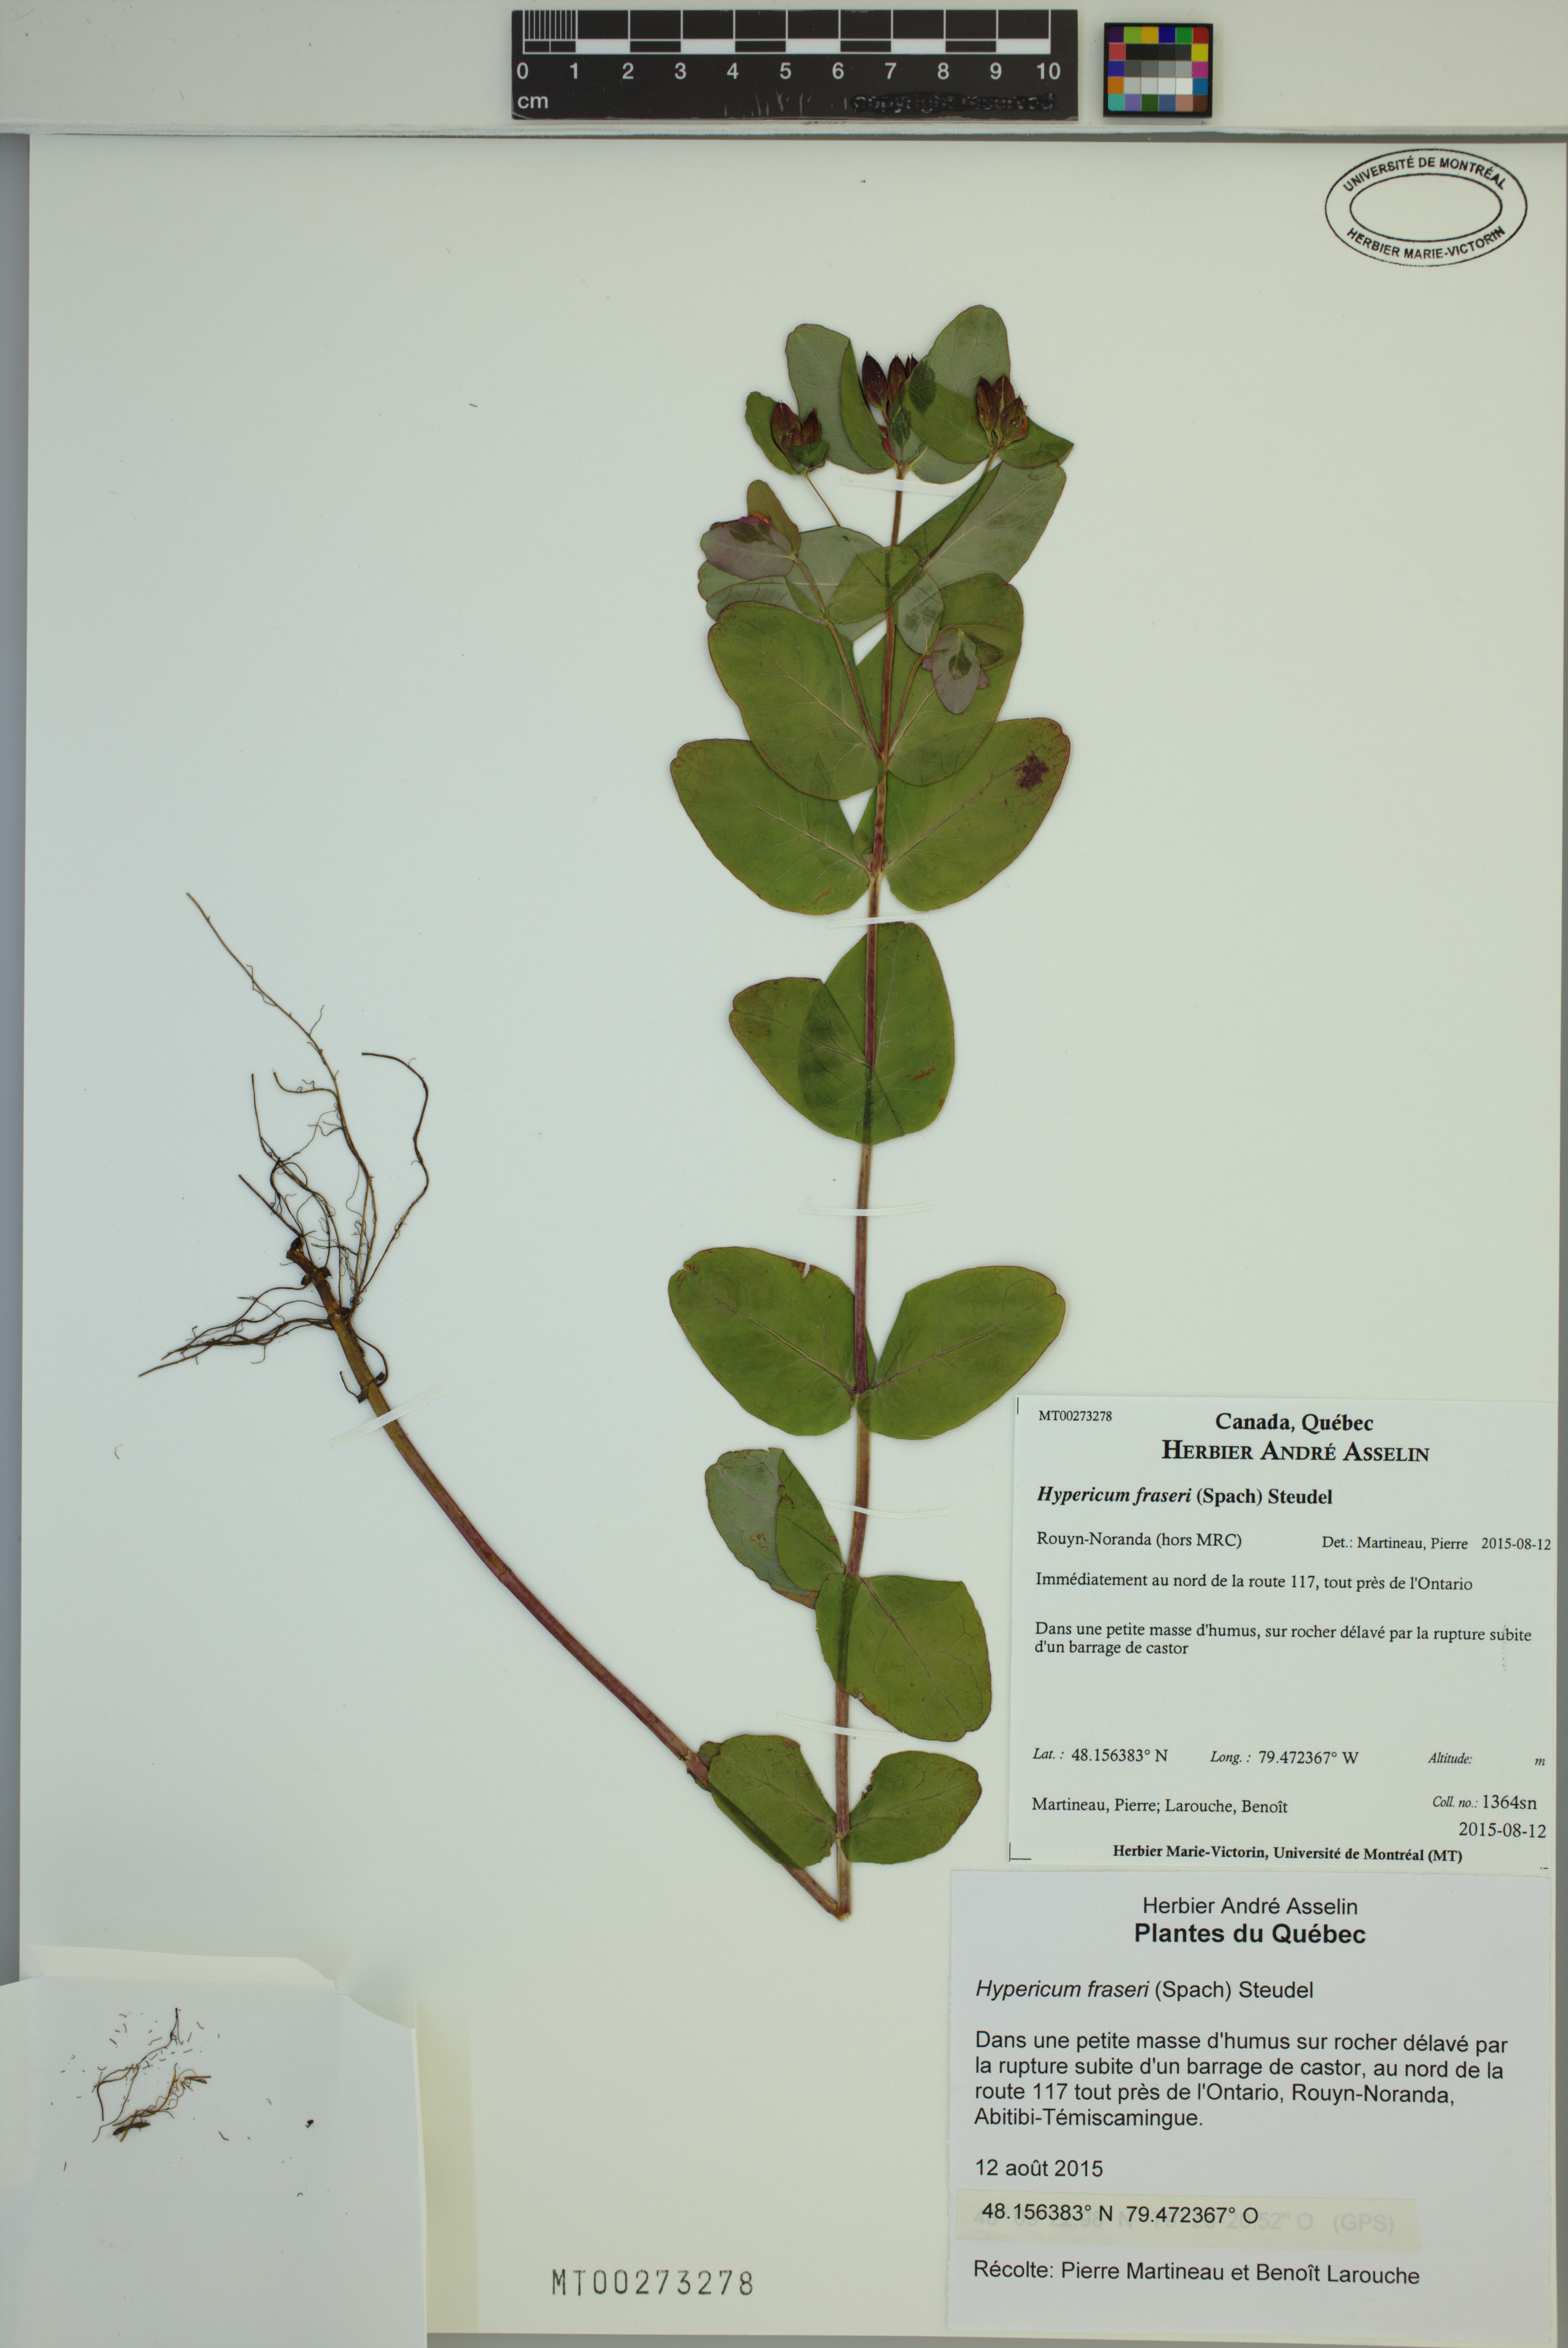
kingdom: Plantae
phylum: Tracheophyta
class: Magnoliopsida
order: Malpighiales
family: Hypericaceae
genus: Triadenum
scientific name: Triadenum fraseri
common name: Fraser's marsh st. johnswort
